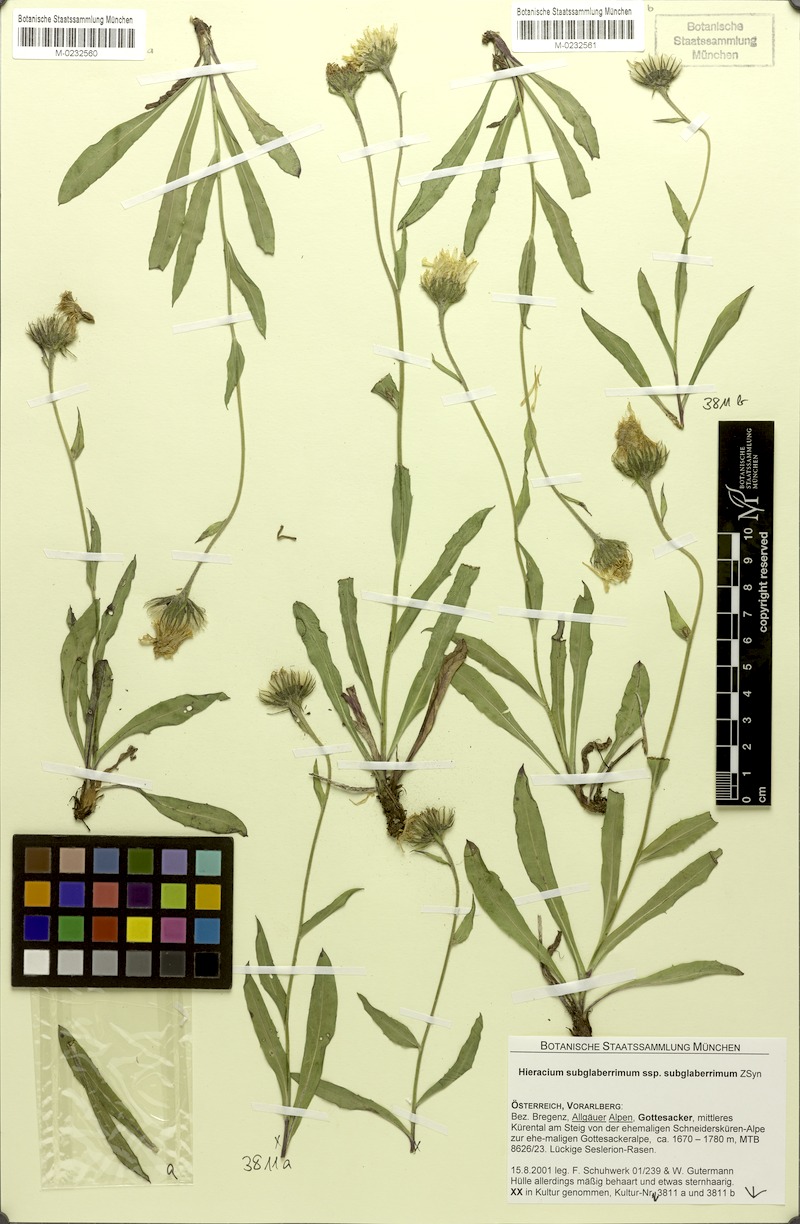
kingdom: Plantae
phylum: Tracheophyta
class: Magnoliopsida
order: Asterales
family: Asteraceae
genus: Hieracium
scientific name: Hieracium subglaberrimum
